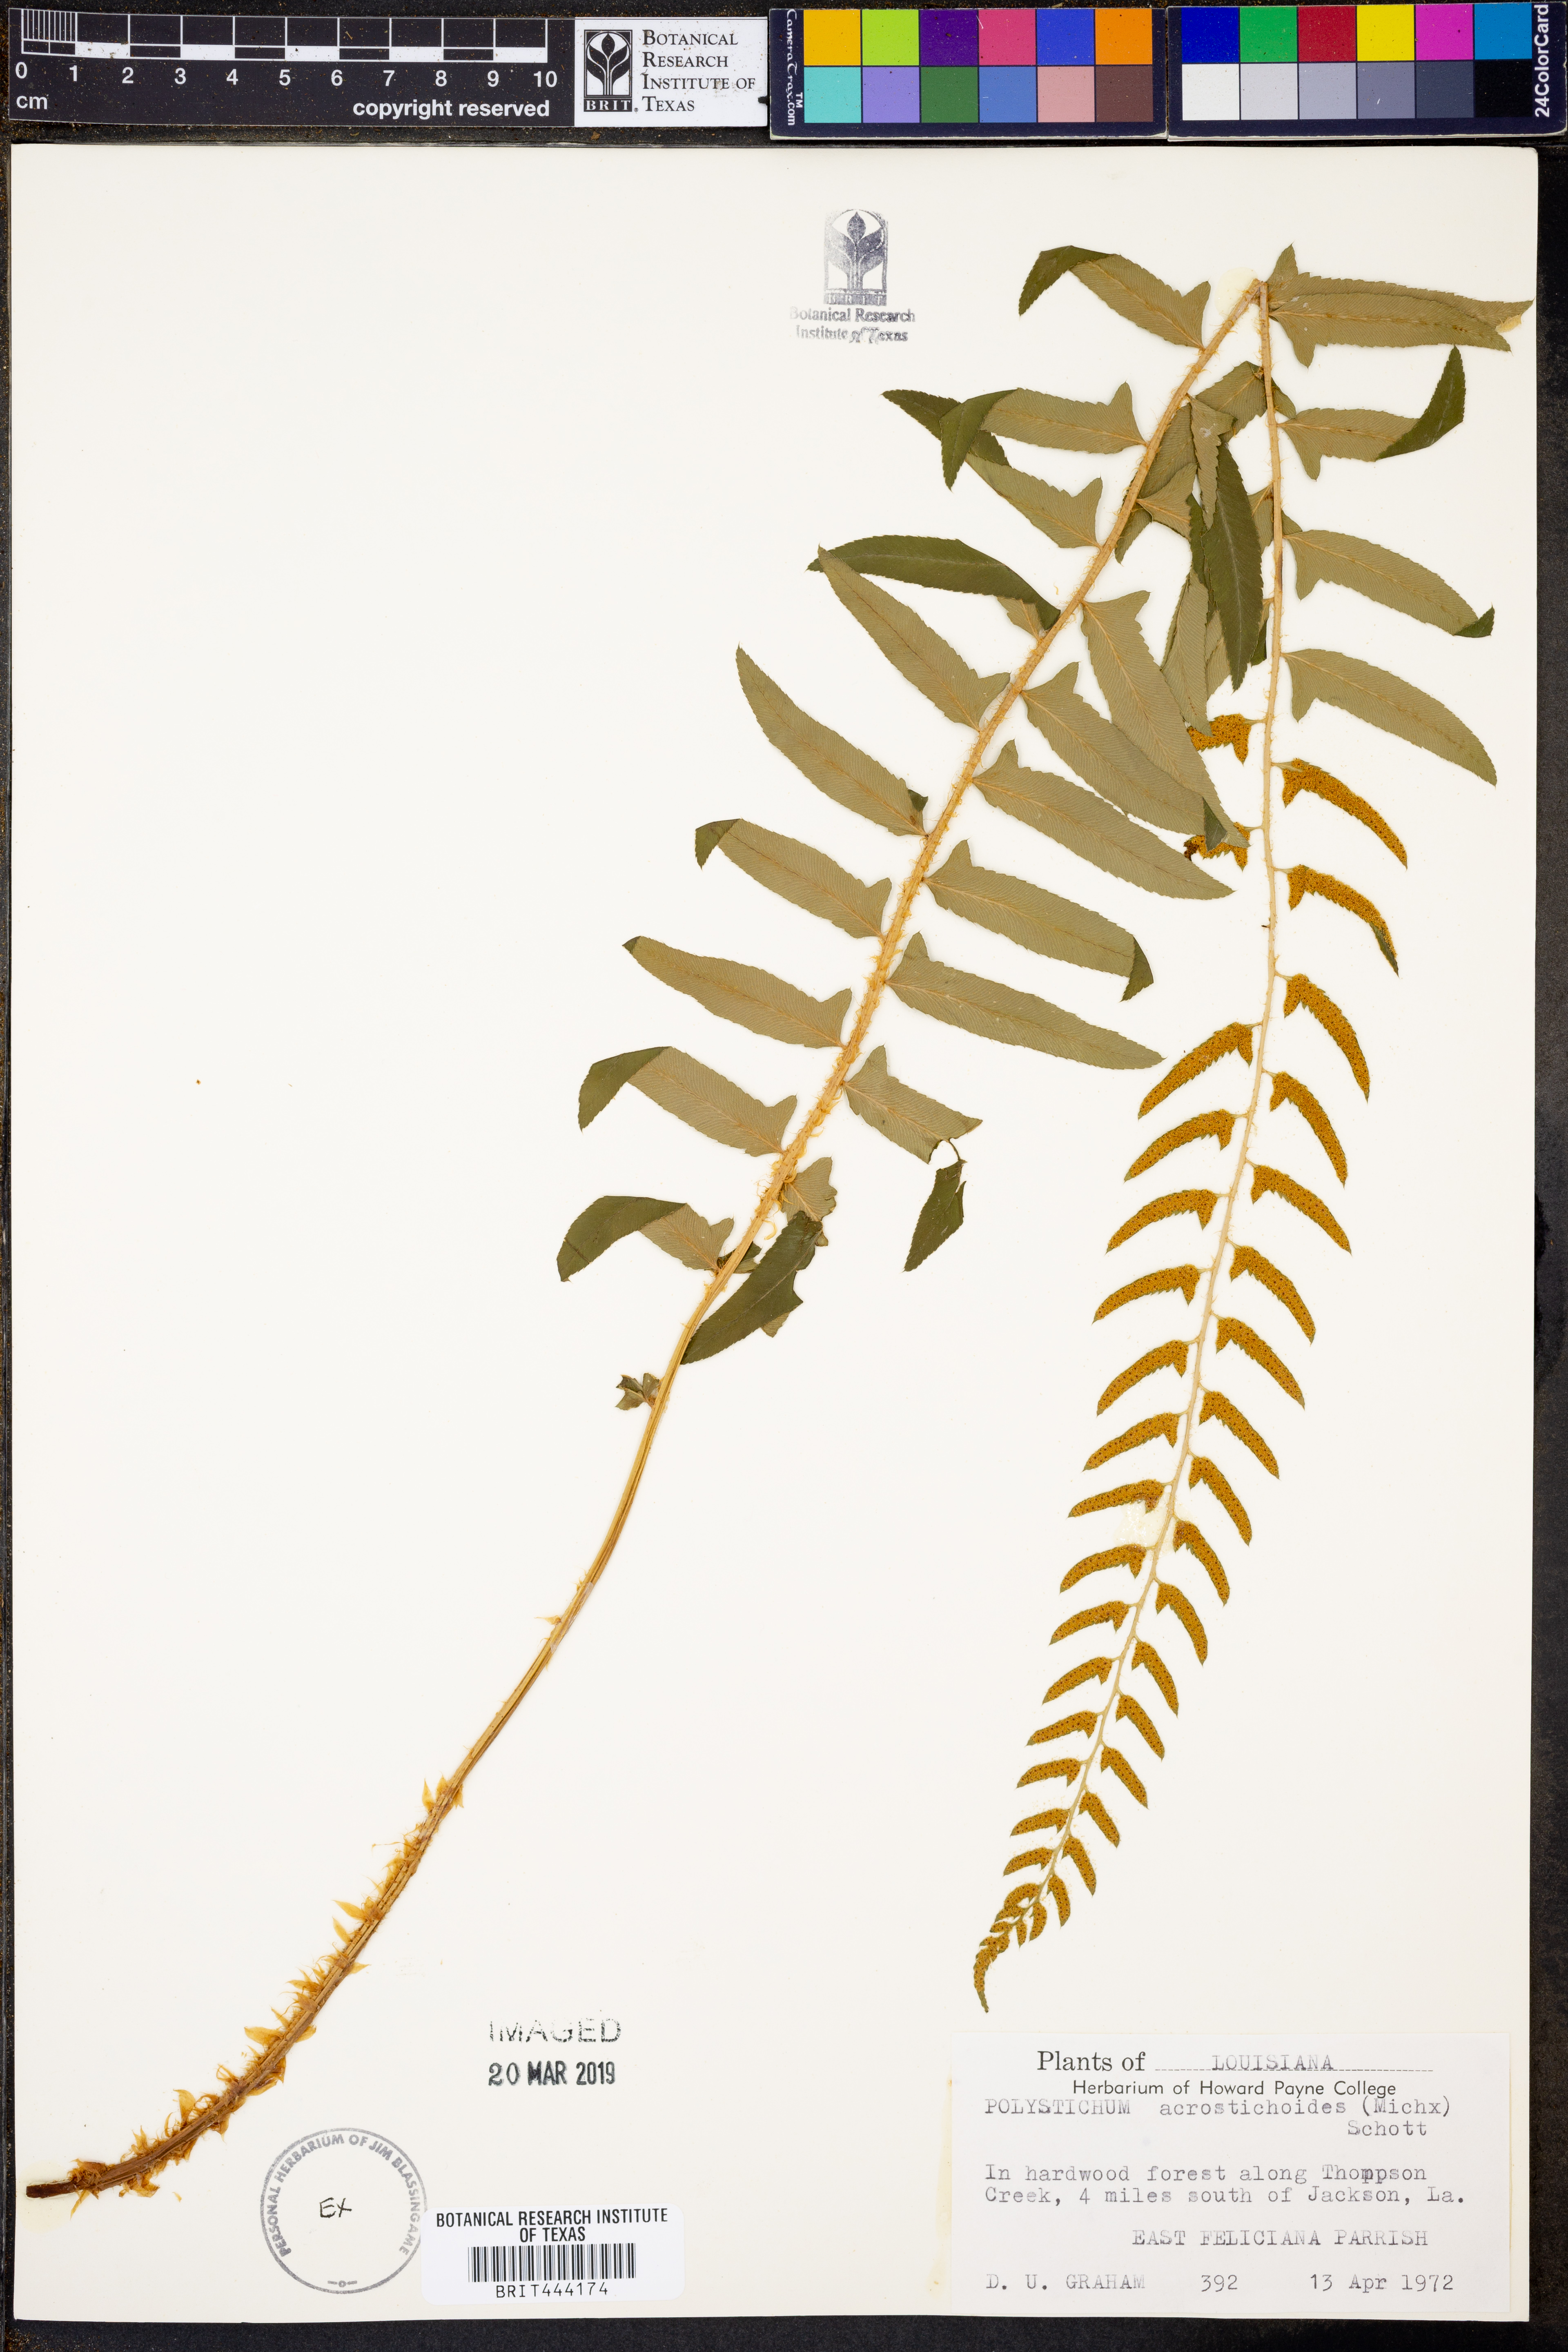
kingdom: Plantae
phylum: Tracheophyta
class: Polypodiopsida
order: Polypodiales
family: Dryopteridaceae
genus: Polystichum
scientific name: Polystichum acrostichoides
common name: Christmas fern
